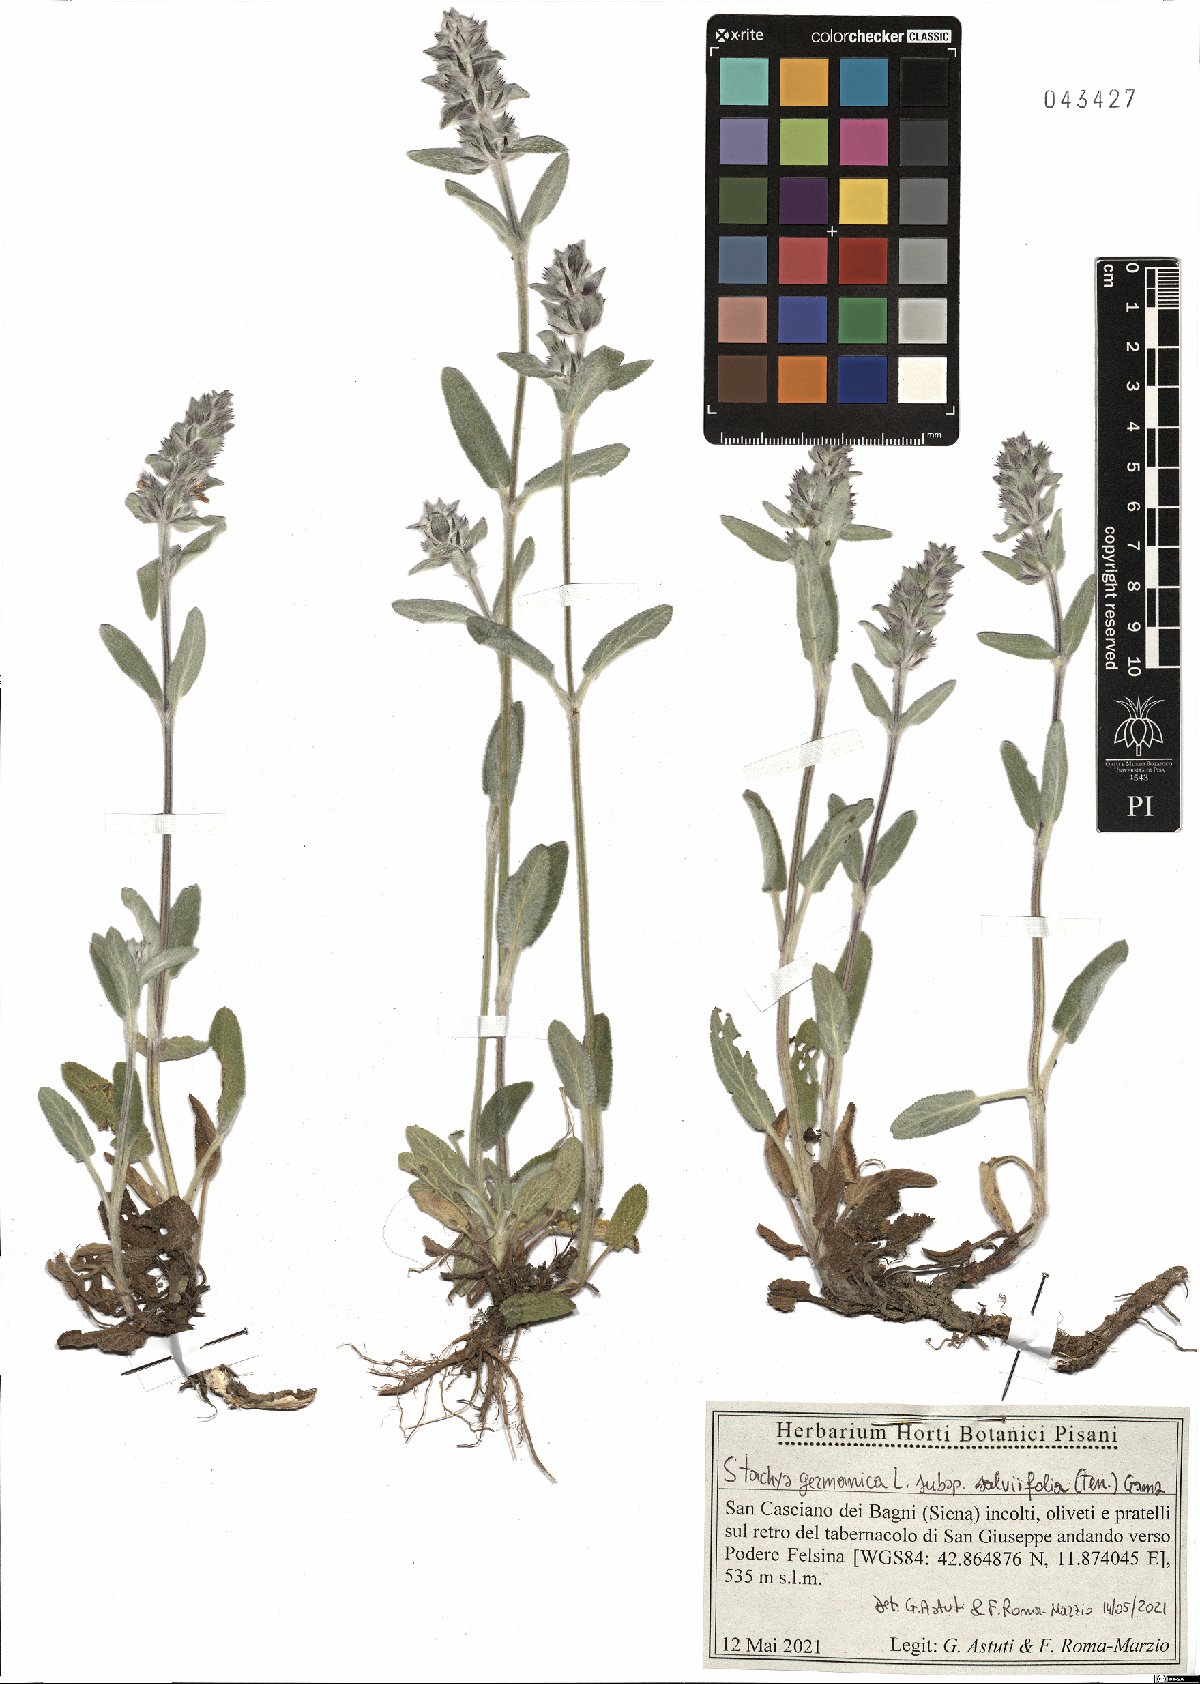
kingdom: Plantae
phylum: Tracheophyta
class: Magnoliopsida
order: Lamiales
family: Lamiaceae
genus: Stachys
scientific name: Stachys cretica
